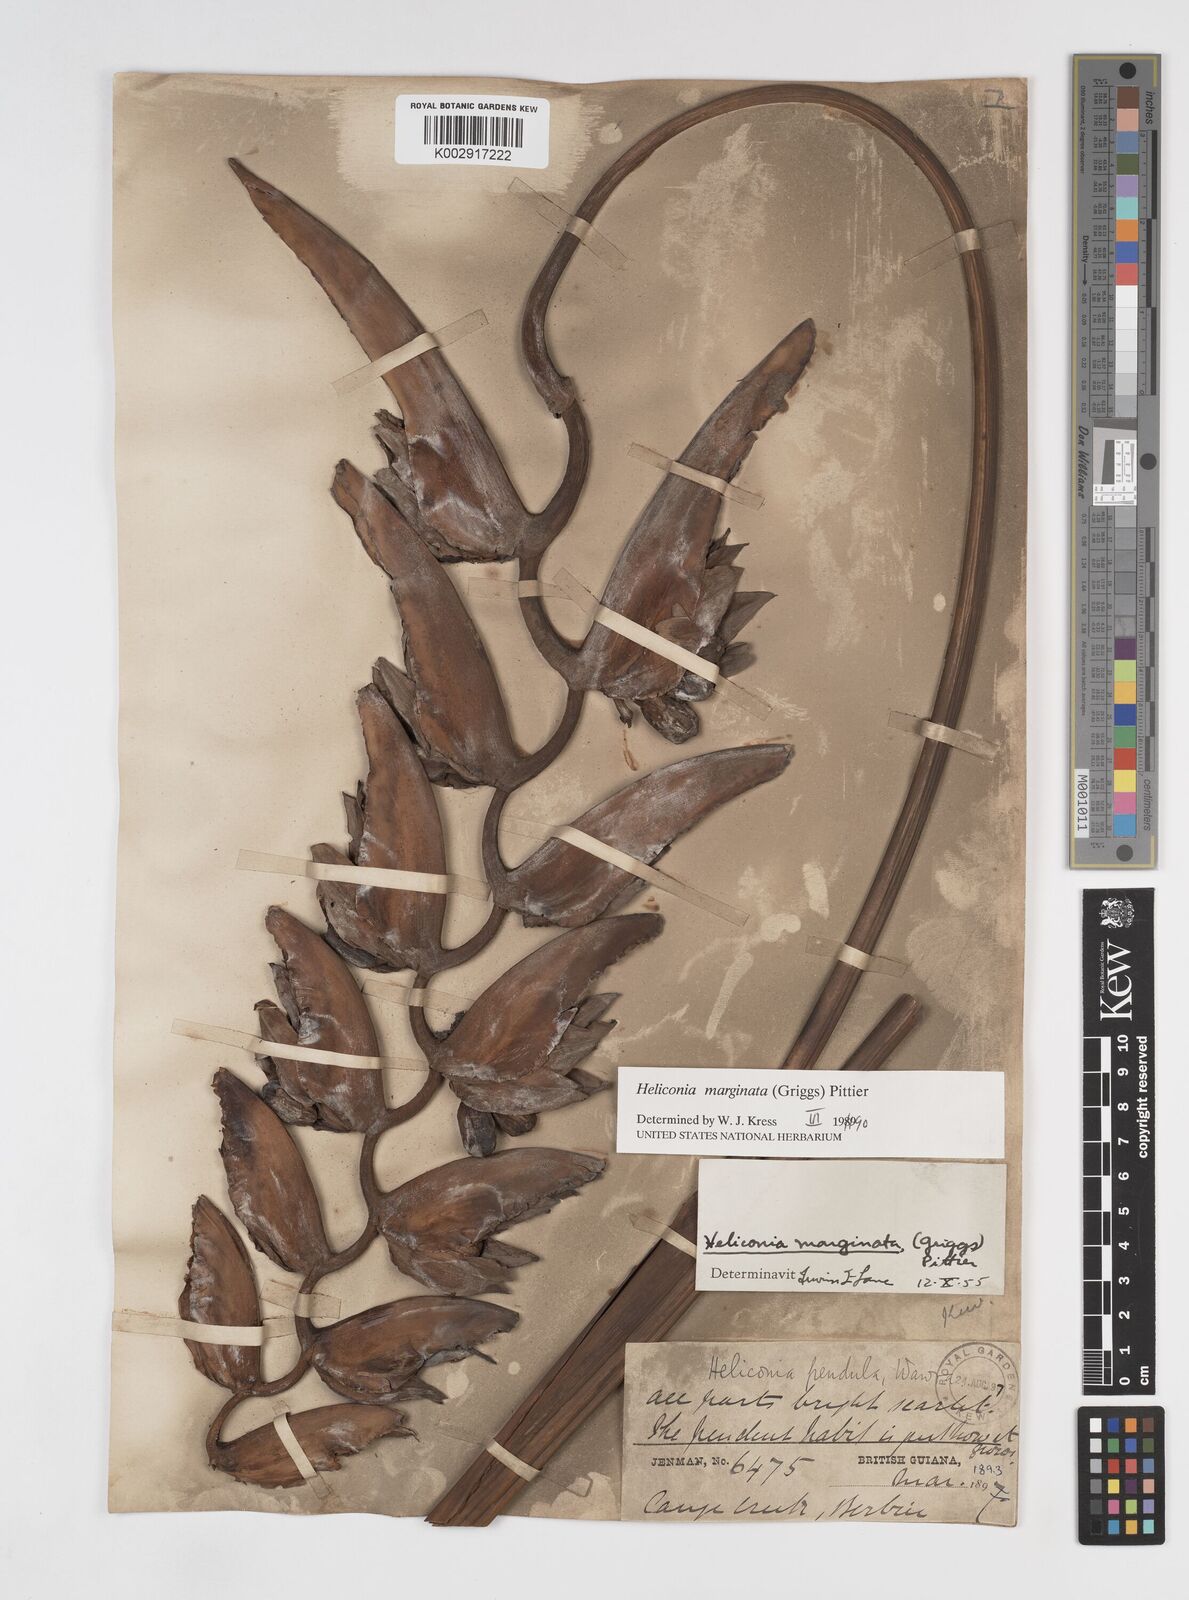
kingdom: Plantae
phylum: Tracheophyta
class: Liliopsida
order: Zingiberales
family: Heliconiaceae
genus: Heliconia
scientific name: Heliconia marginata
